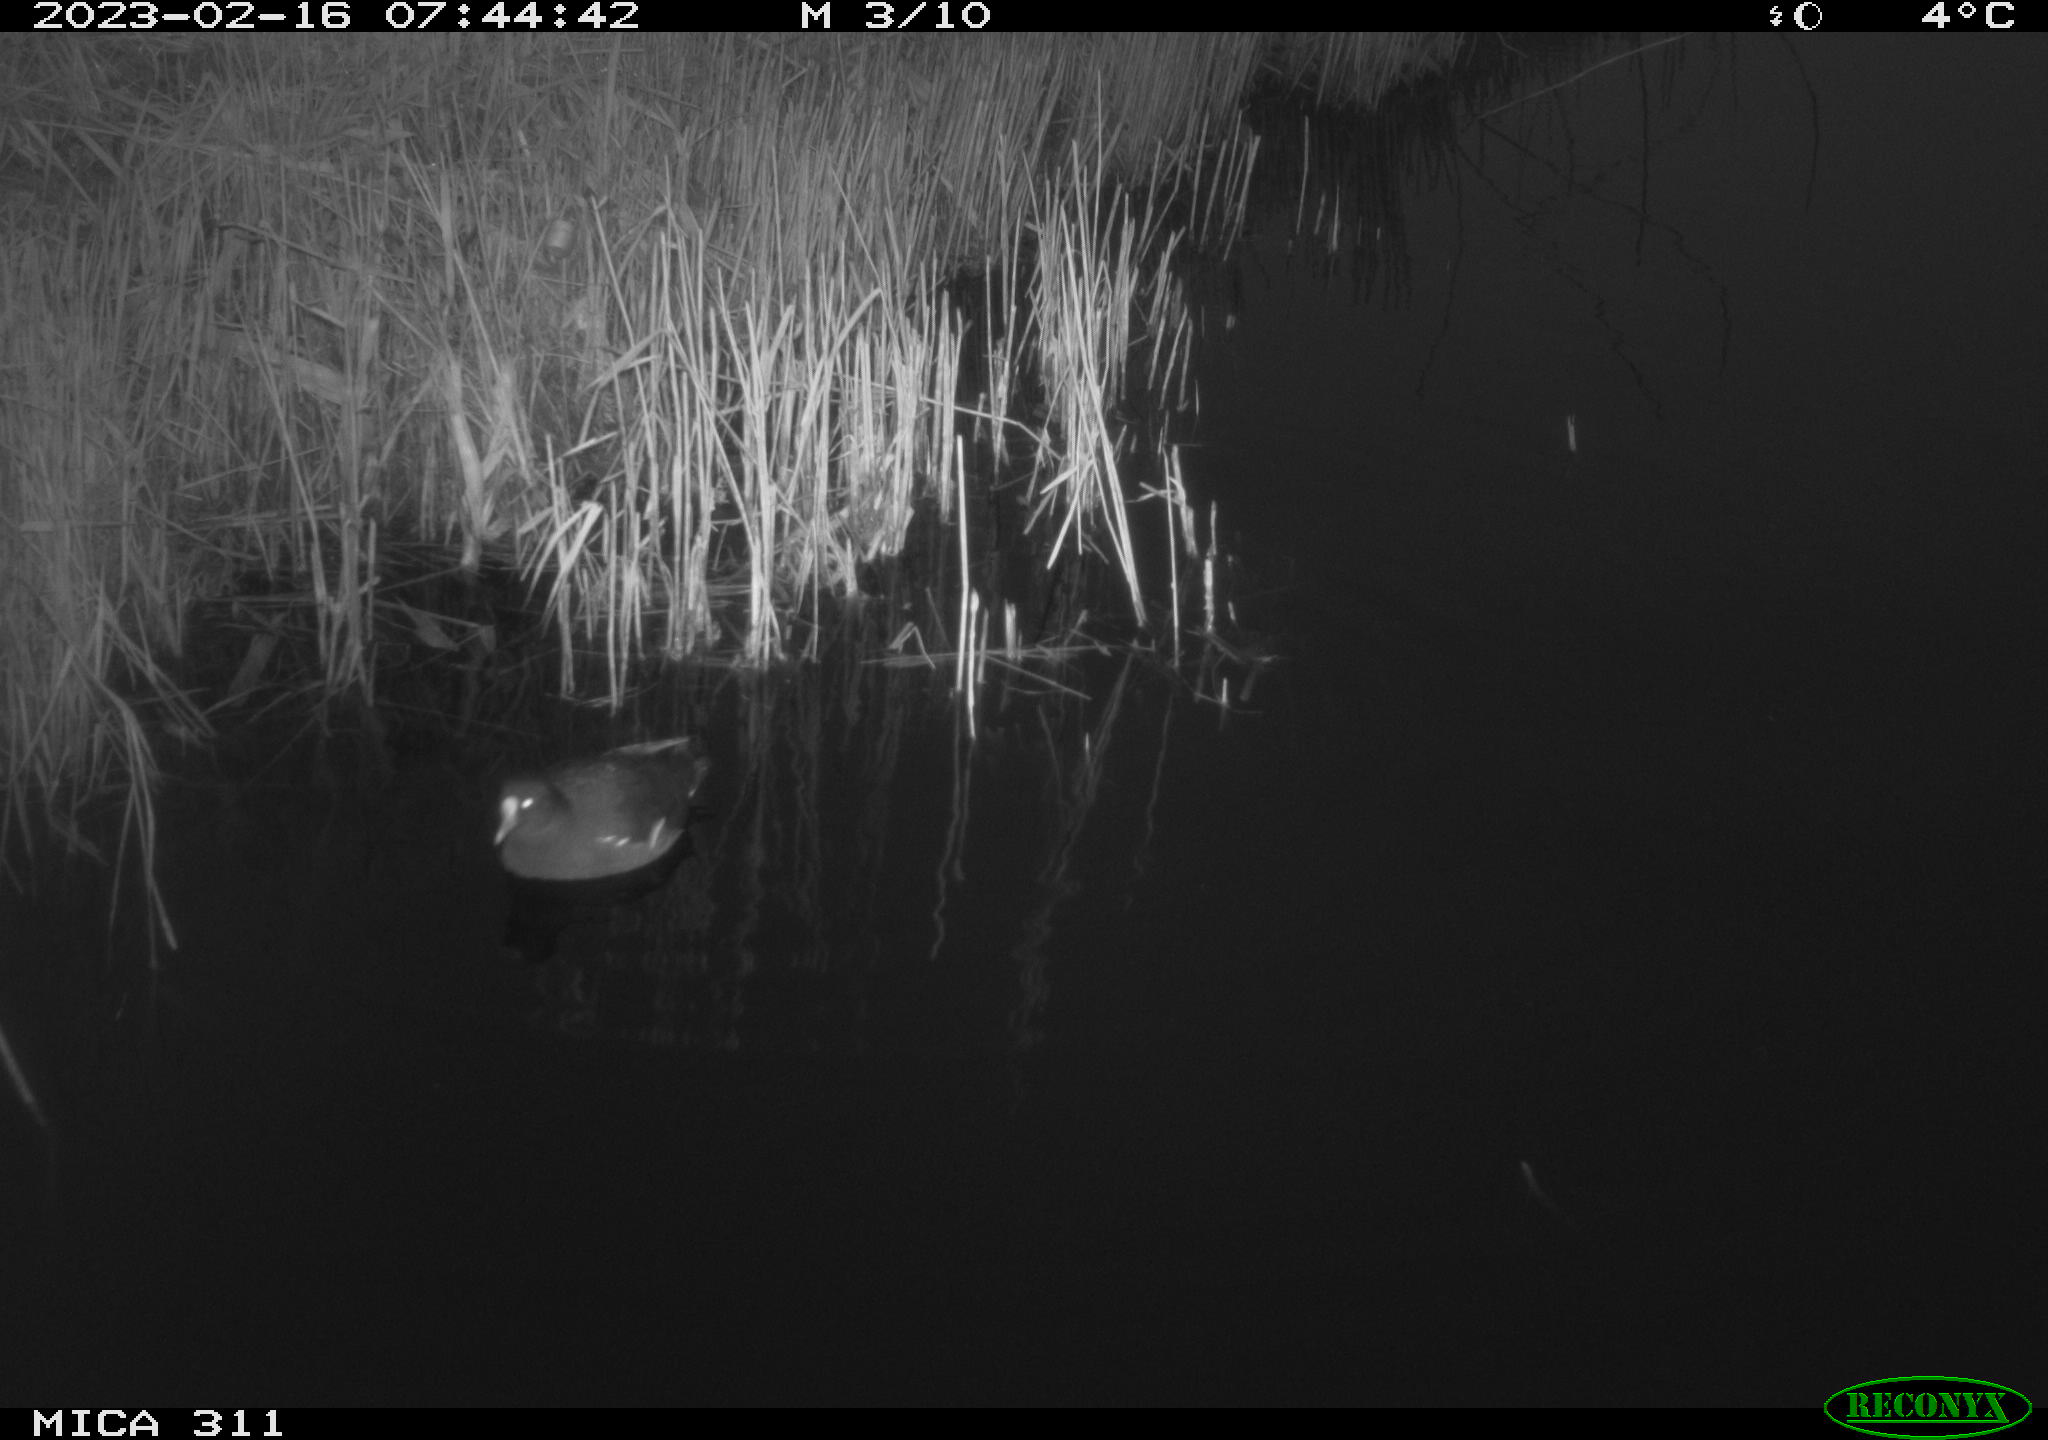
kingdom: Animalia
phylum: Chordata
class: Aves
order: Gruiformes
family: Rallidae
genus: Gallinula
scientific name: Gallinula chloropus
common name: Common moorhen
